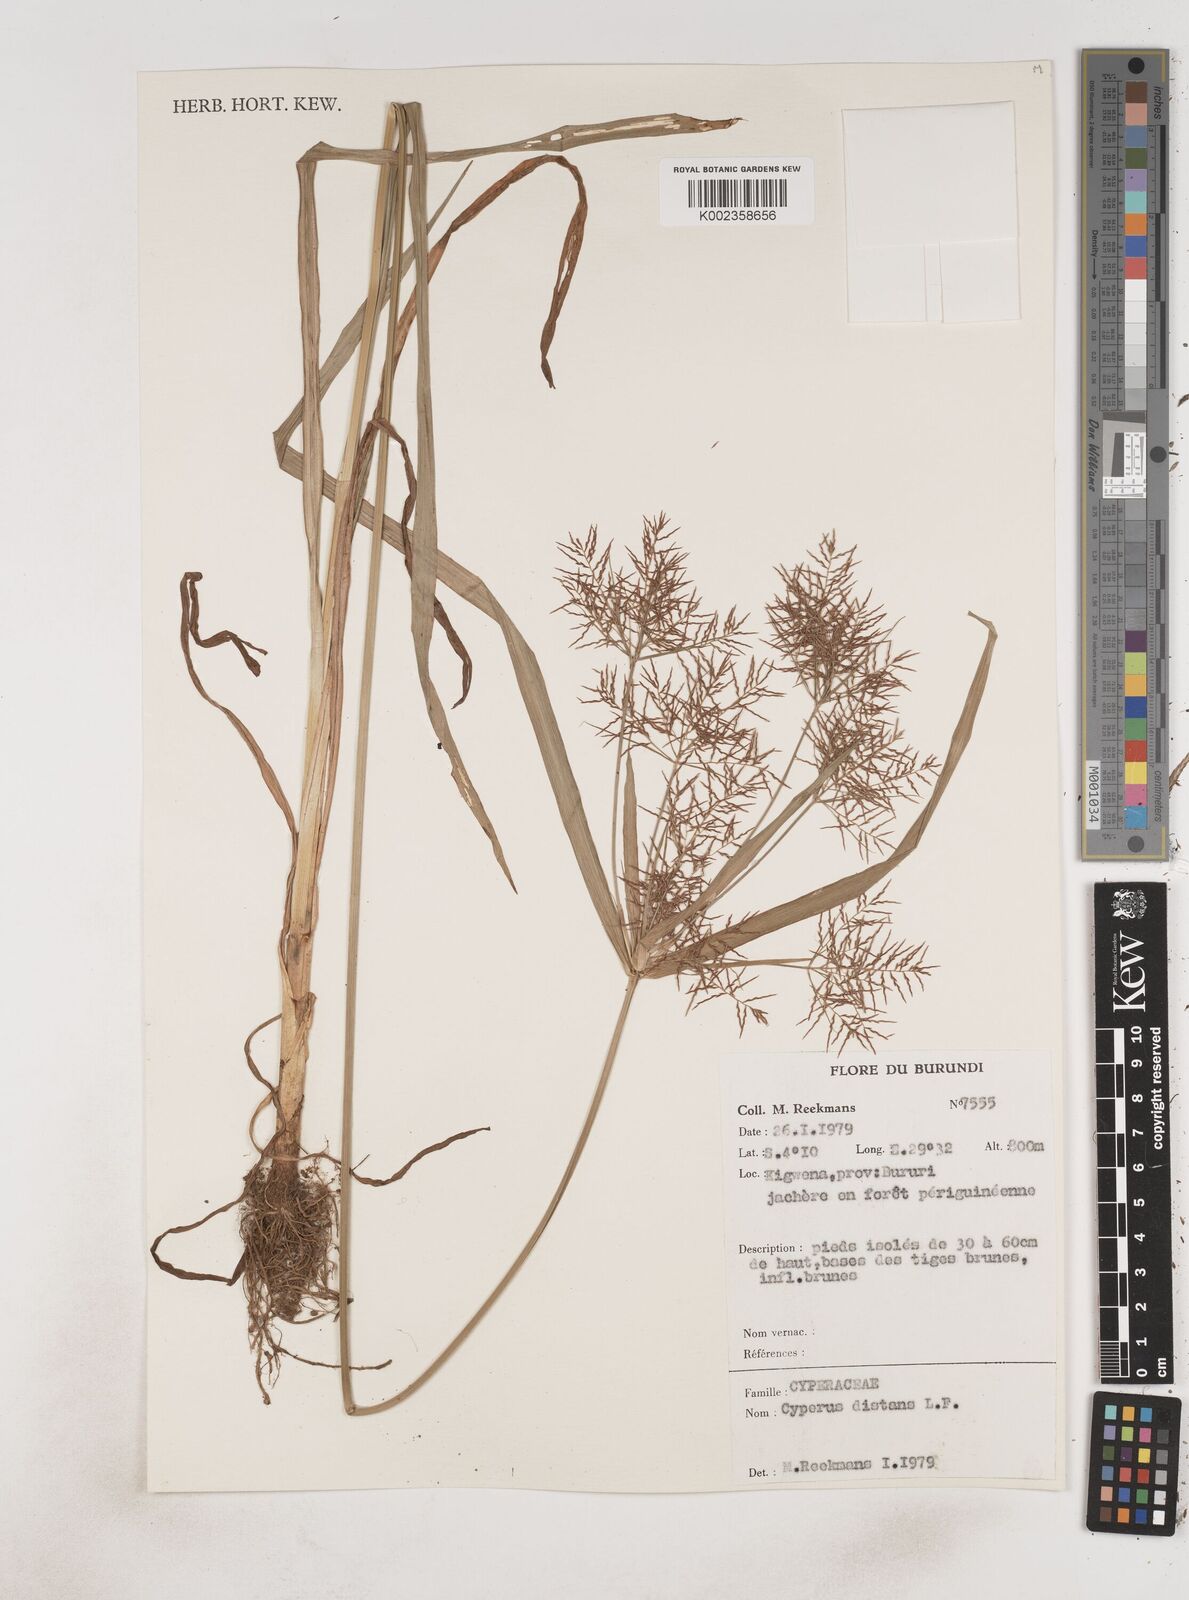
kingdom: Plantae
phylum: Tracheophyta
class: Liliopsida
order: Poales
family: Cyperaceae
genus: Cyperus
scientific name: Cyperus distans
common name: Slender cyperus
